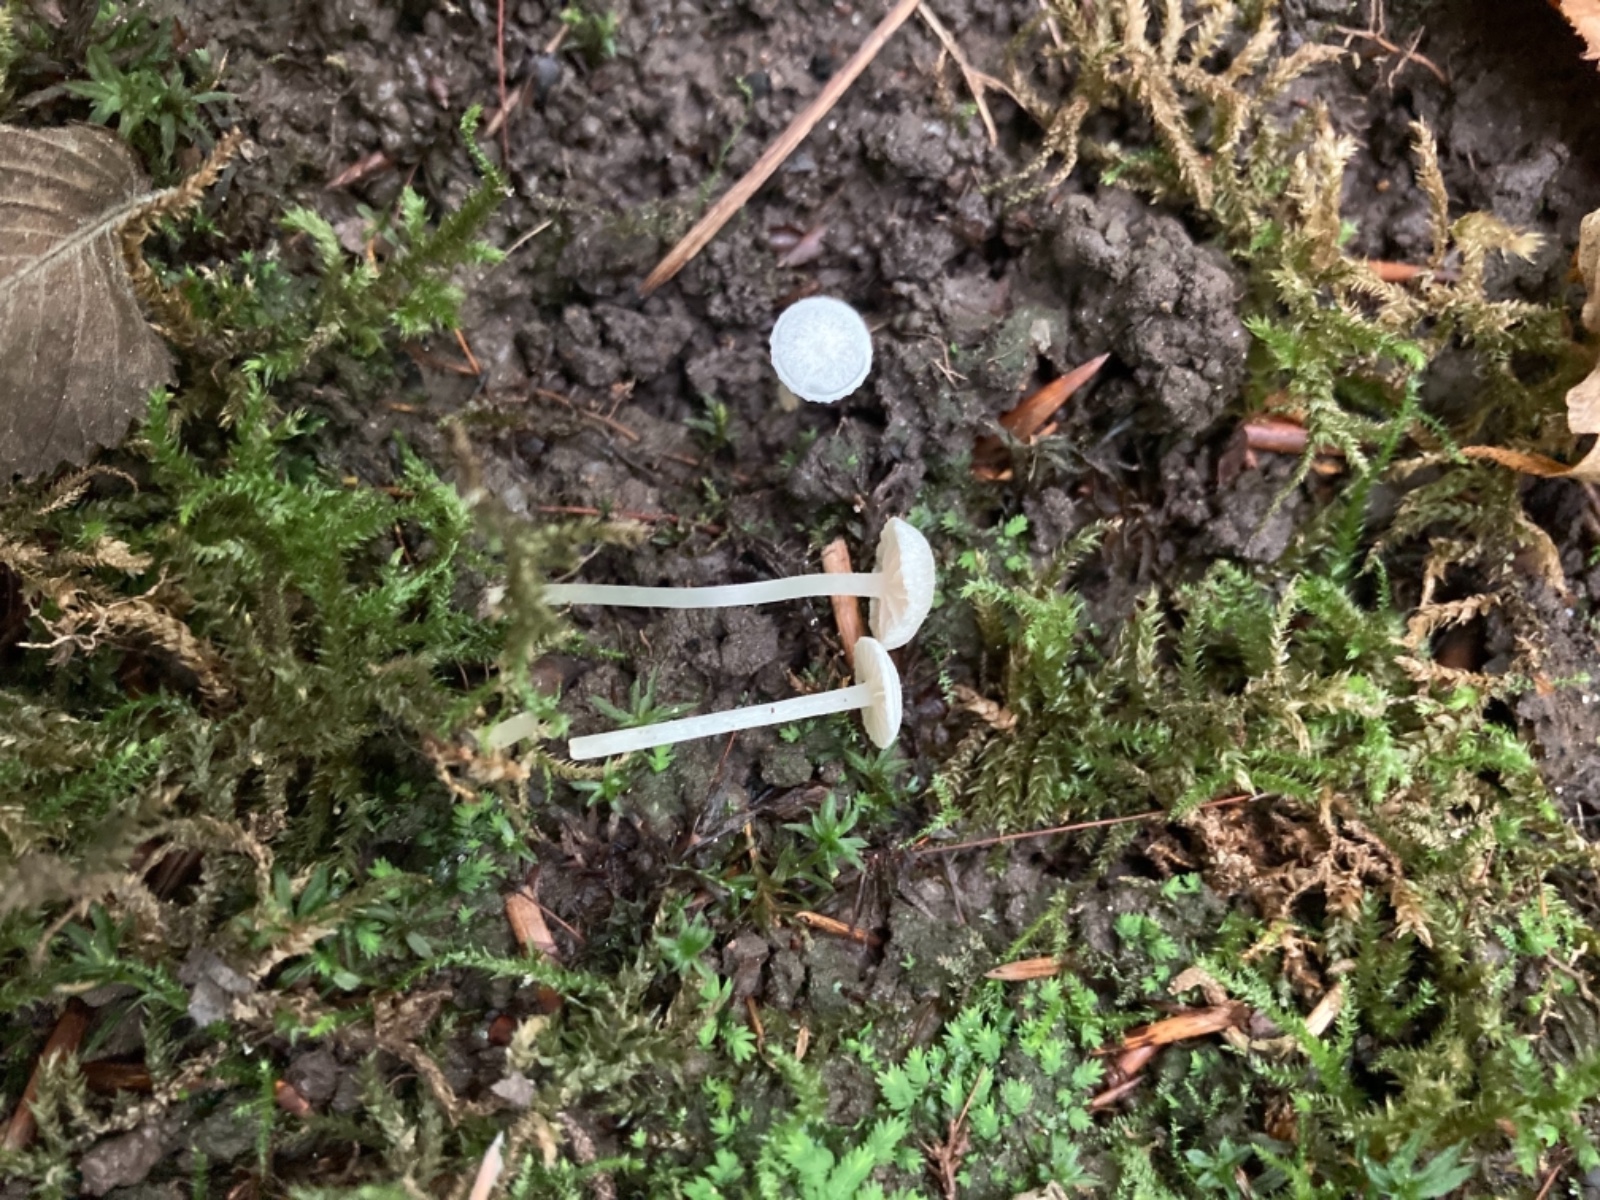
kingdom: Fungi
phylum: Basidiomycota
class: Agaricomycetes
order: Agaricales
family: Entolomataceae
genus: Entoloma
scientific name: Entoloma sericellum
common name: silkehvid rødblad
